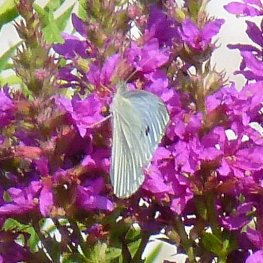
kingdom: Animalia
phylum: Arthropoda
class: Insecta
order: Lepidoptera
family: Pieridae
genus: Pieris
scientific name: Pieris rapae
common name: Cabbage White
